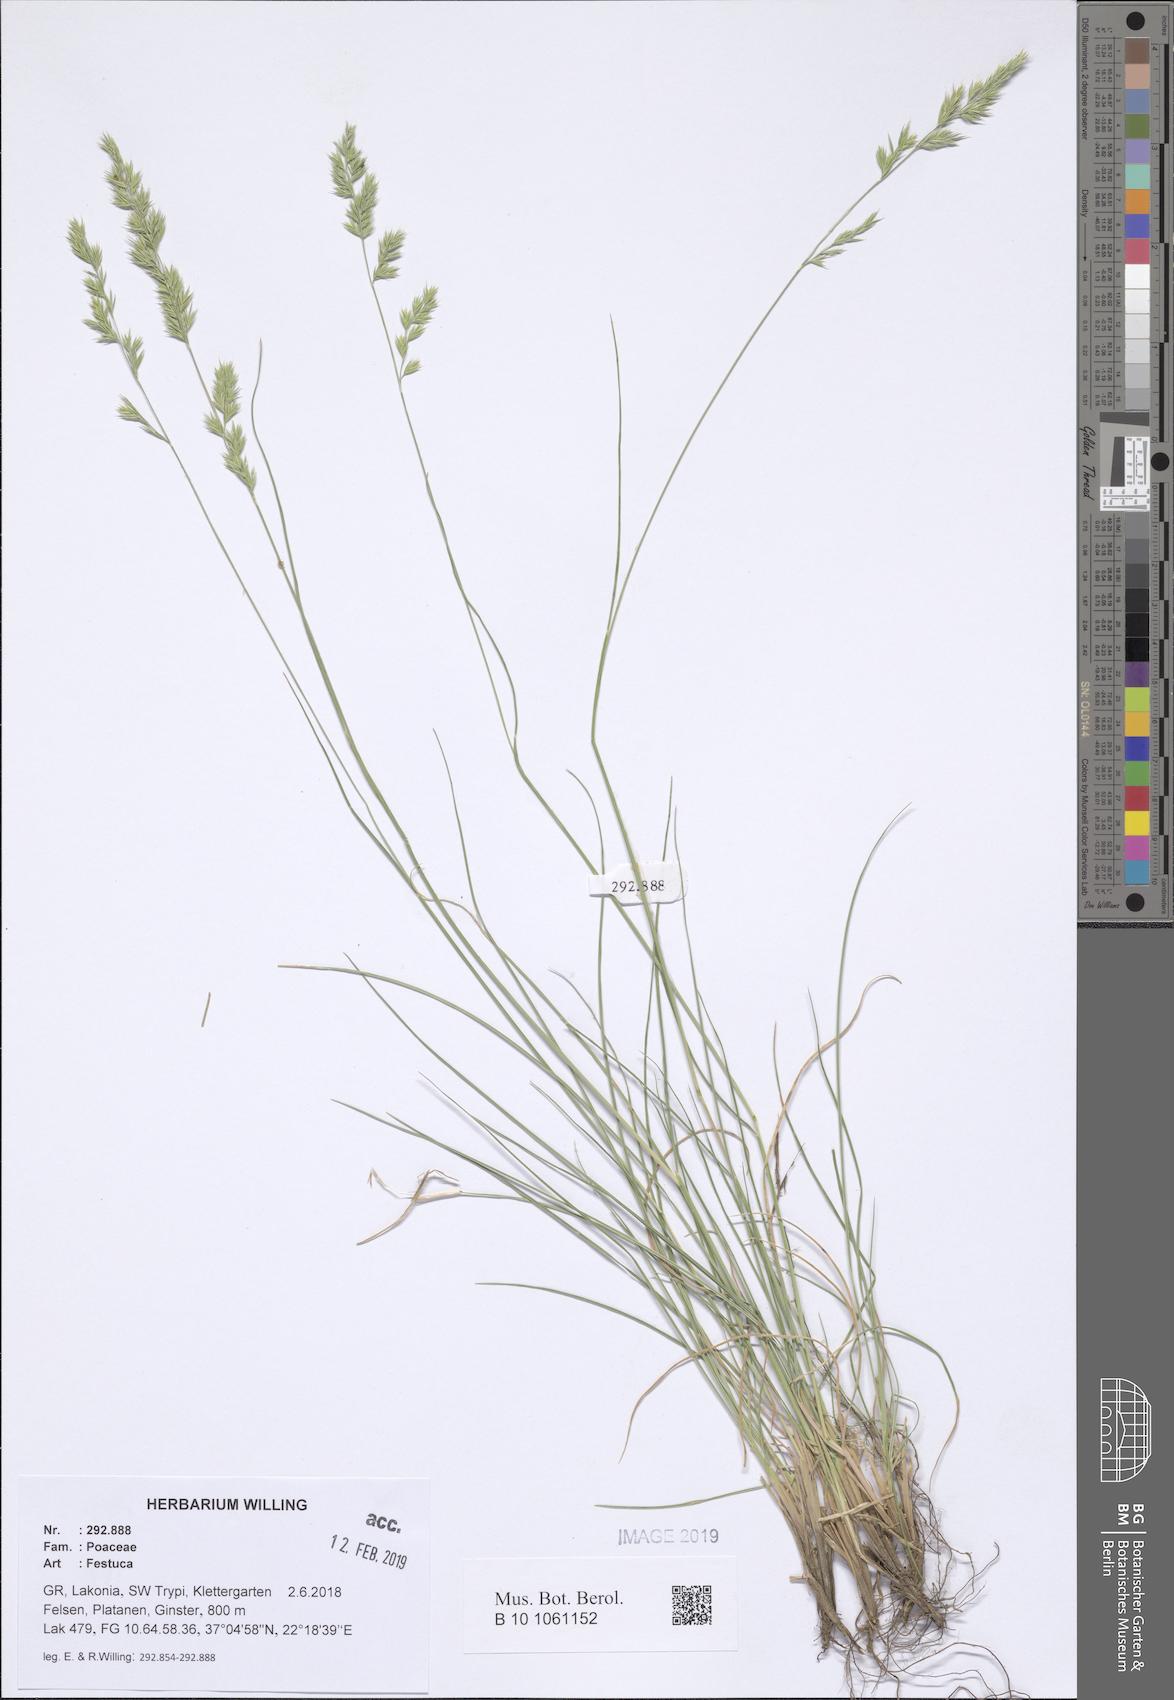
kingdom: Plantae
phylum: Tracheophyta
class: Liliopsida
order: Poales
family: Poaceae
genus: Festuca
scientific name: Festuca
